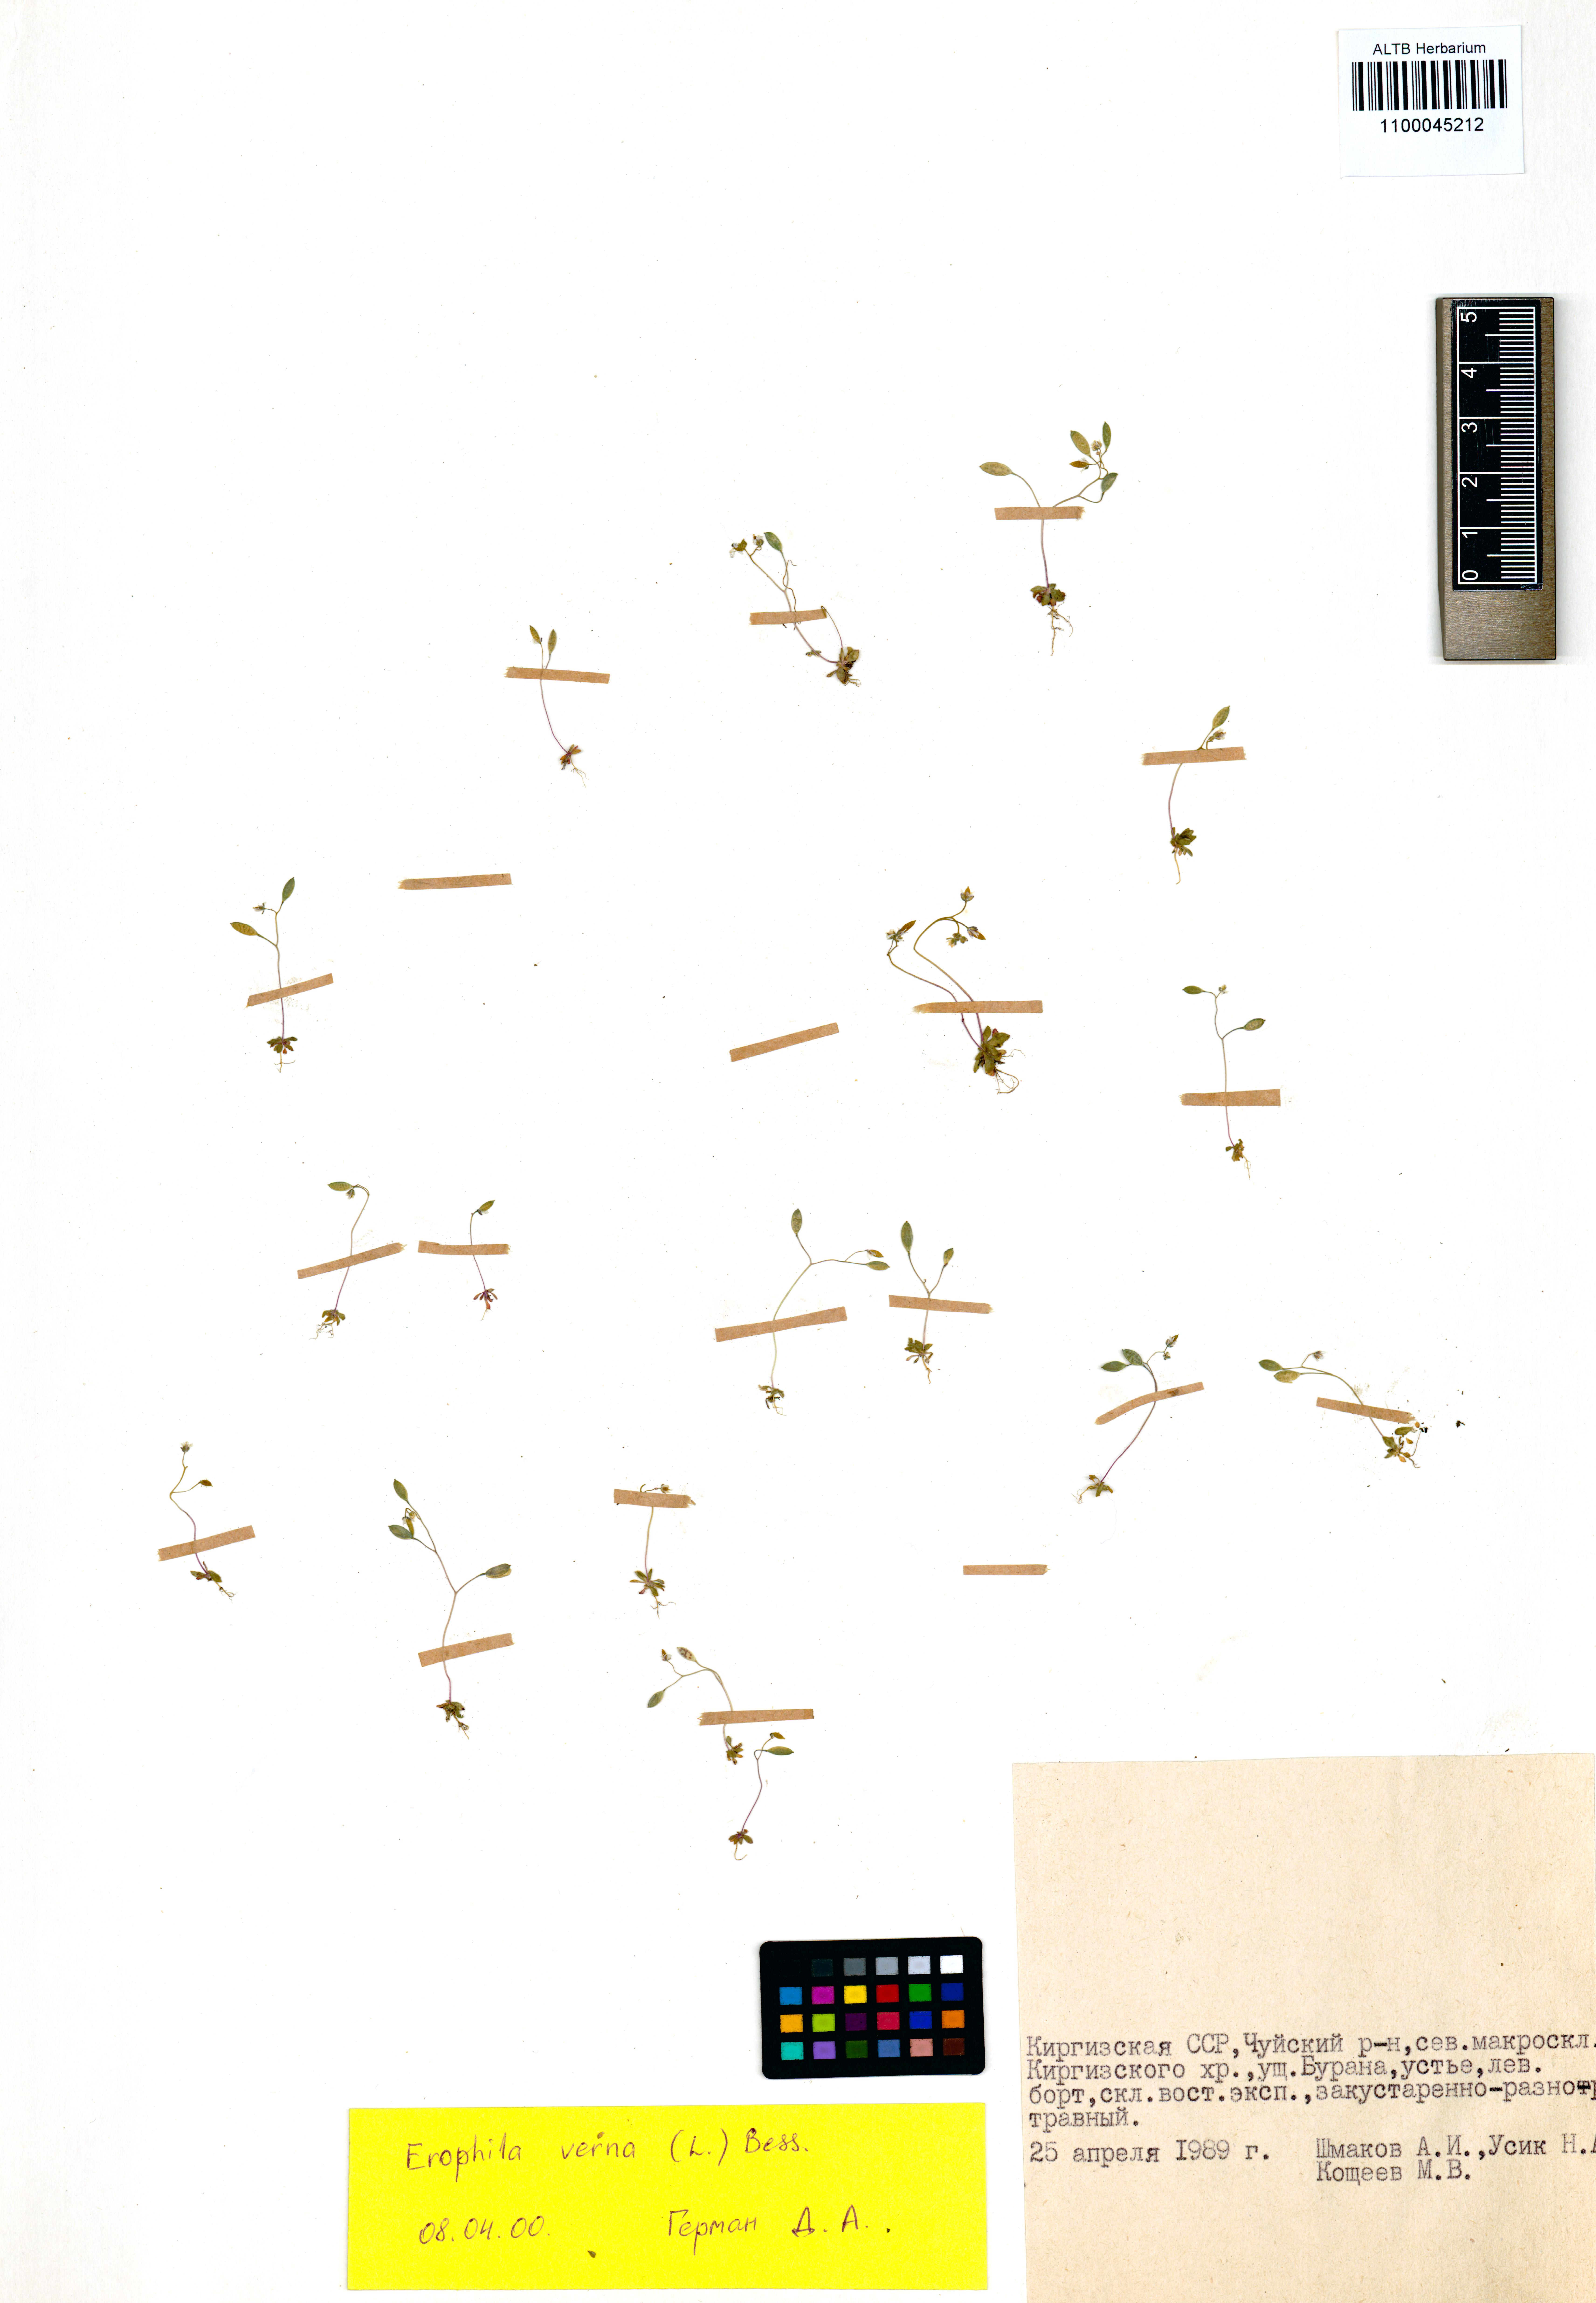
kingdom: Plantae
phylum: Tracheophyta
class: Magnoliopsida
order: Brassicales
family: Brassicaceae
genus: Draba
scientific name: Draba verna
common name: Spring draba
